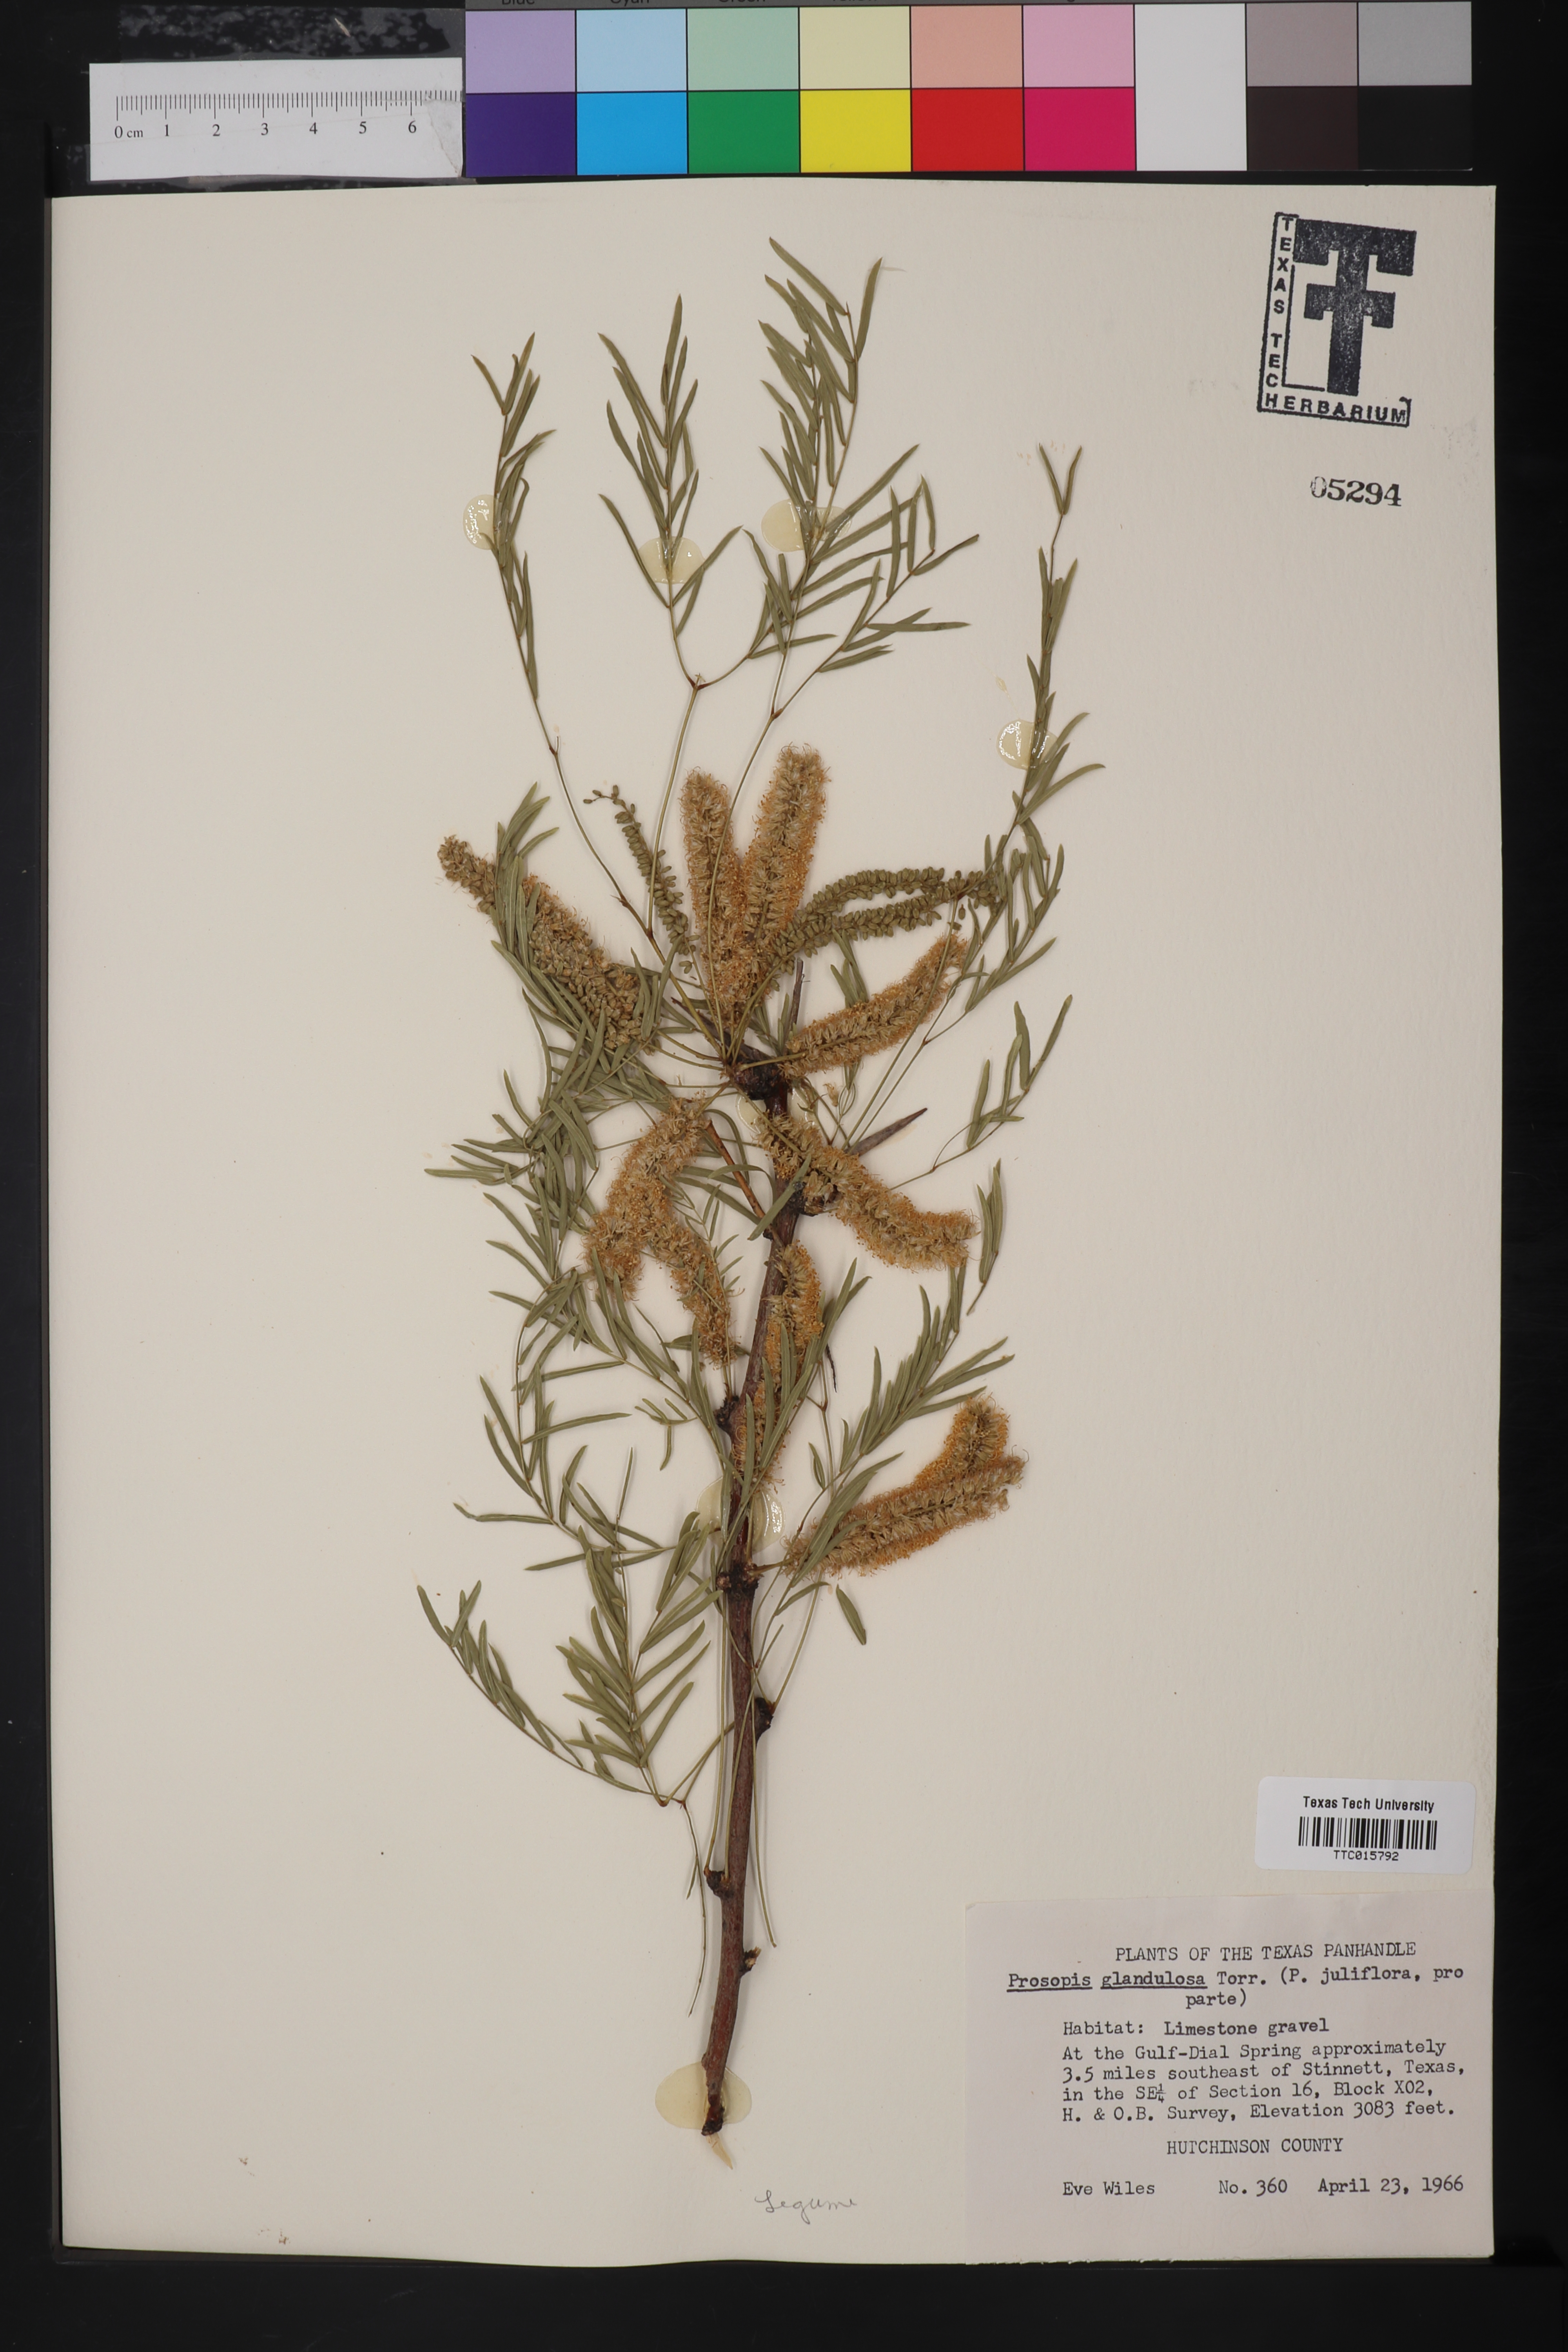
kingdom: Plantae
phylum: Tracheophyta
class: Magnoliopsida
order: Fabales
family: Fabaceae
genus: Prosopis
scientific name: Prosopis glandulosa
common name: Honey mesquite
